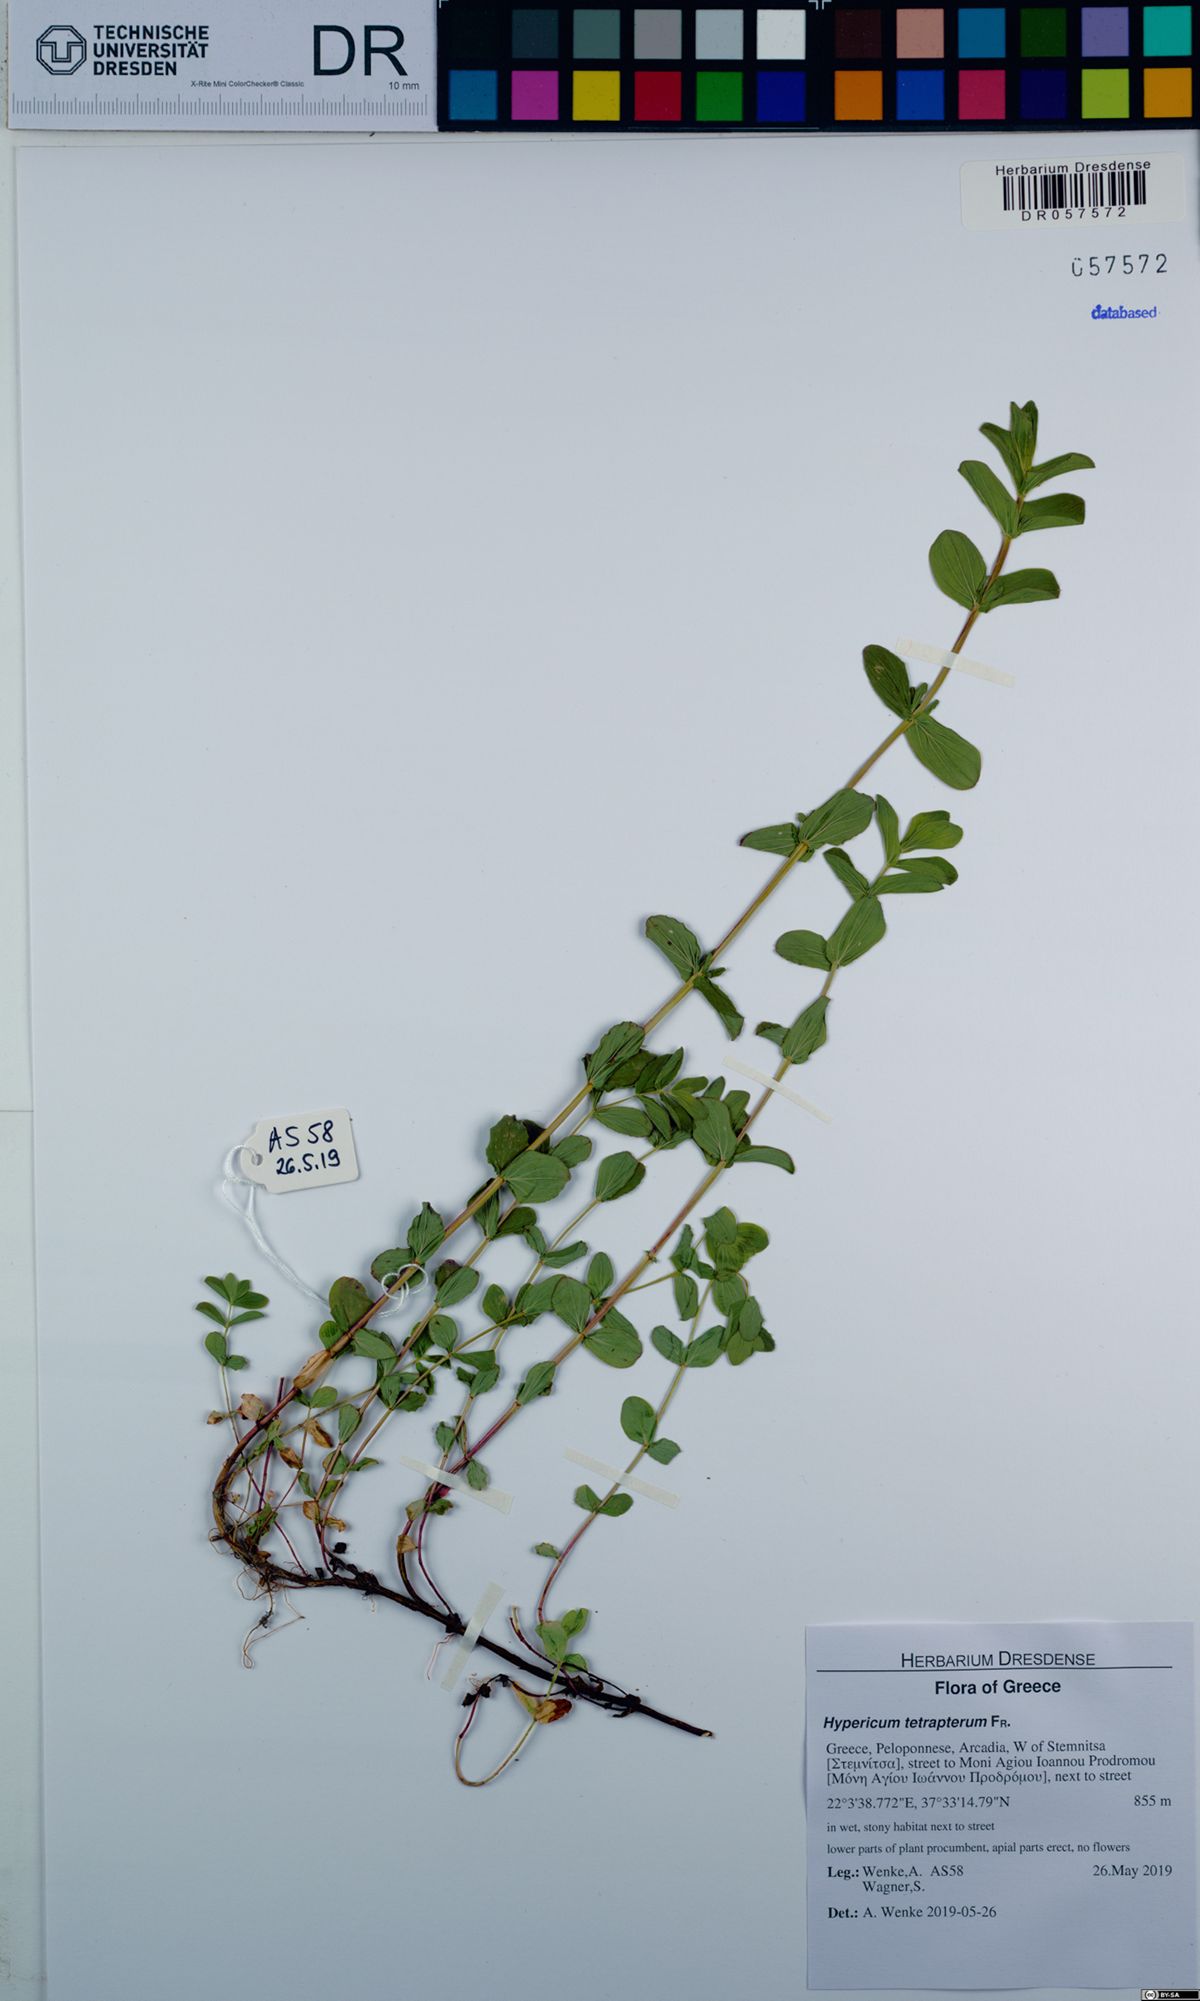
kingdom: Plantae
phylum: Tracheophyta
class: Magnoliopsida
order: Malpighiales
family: Hypericaceae
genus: Hypericum
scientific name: Hypericum tetrapterum
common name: Square-stalked st. john's-wort
